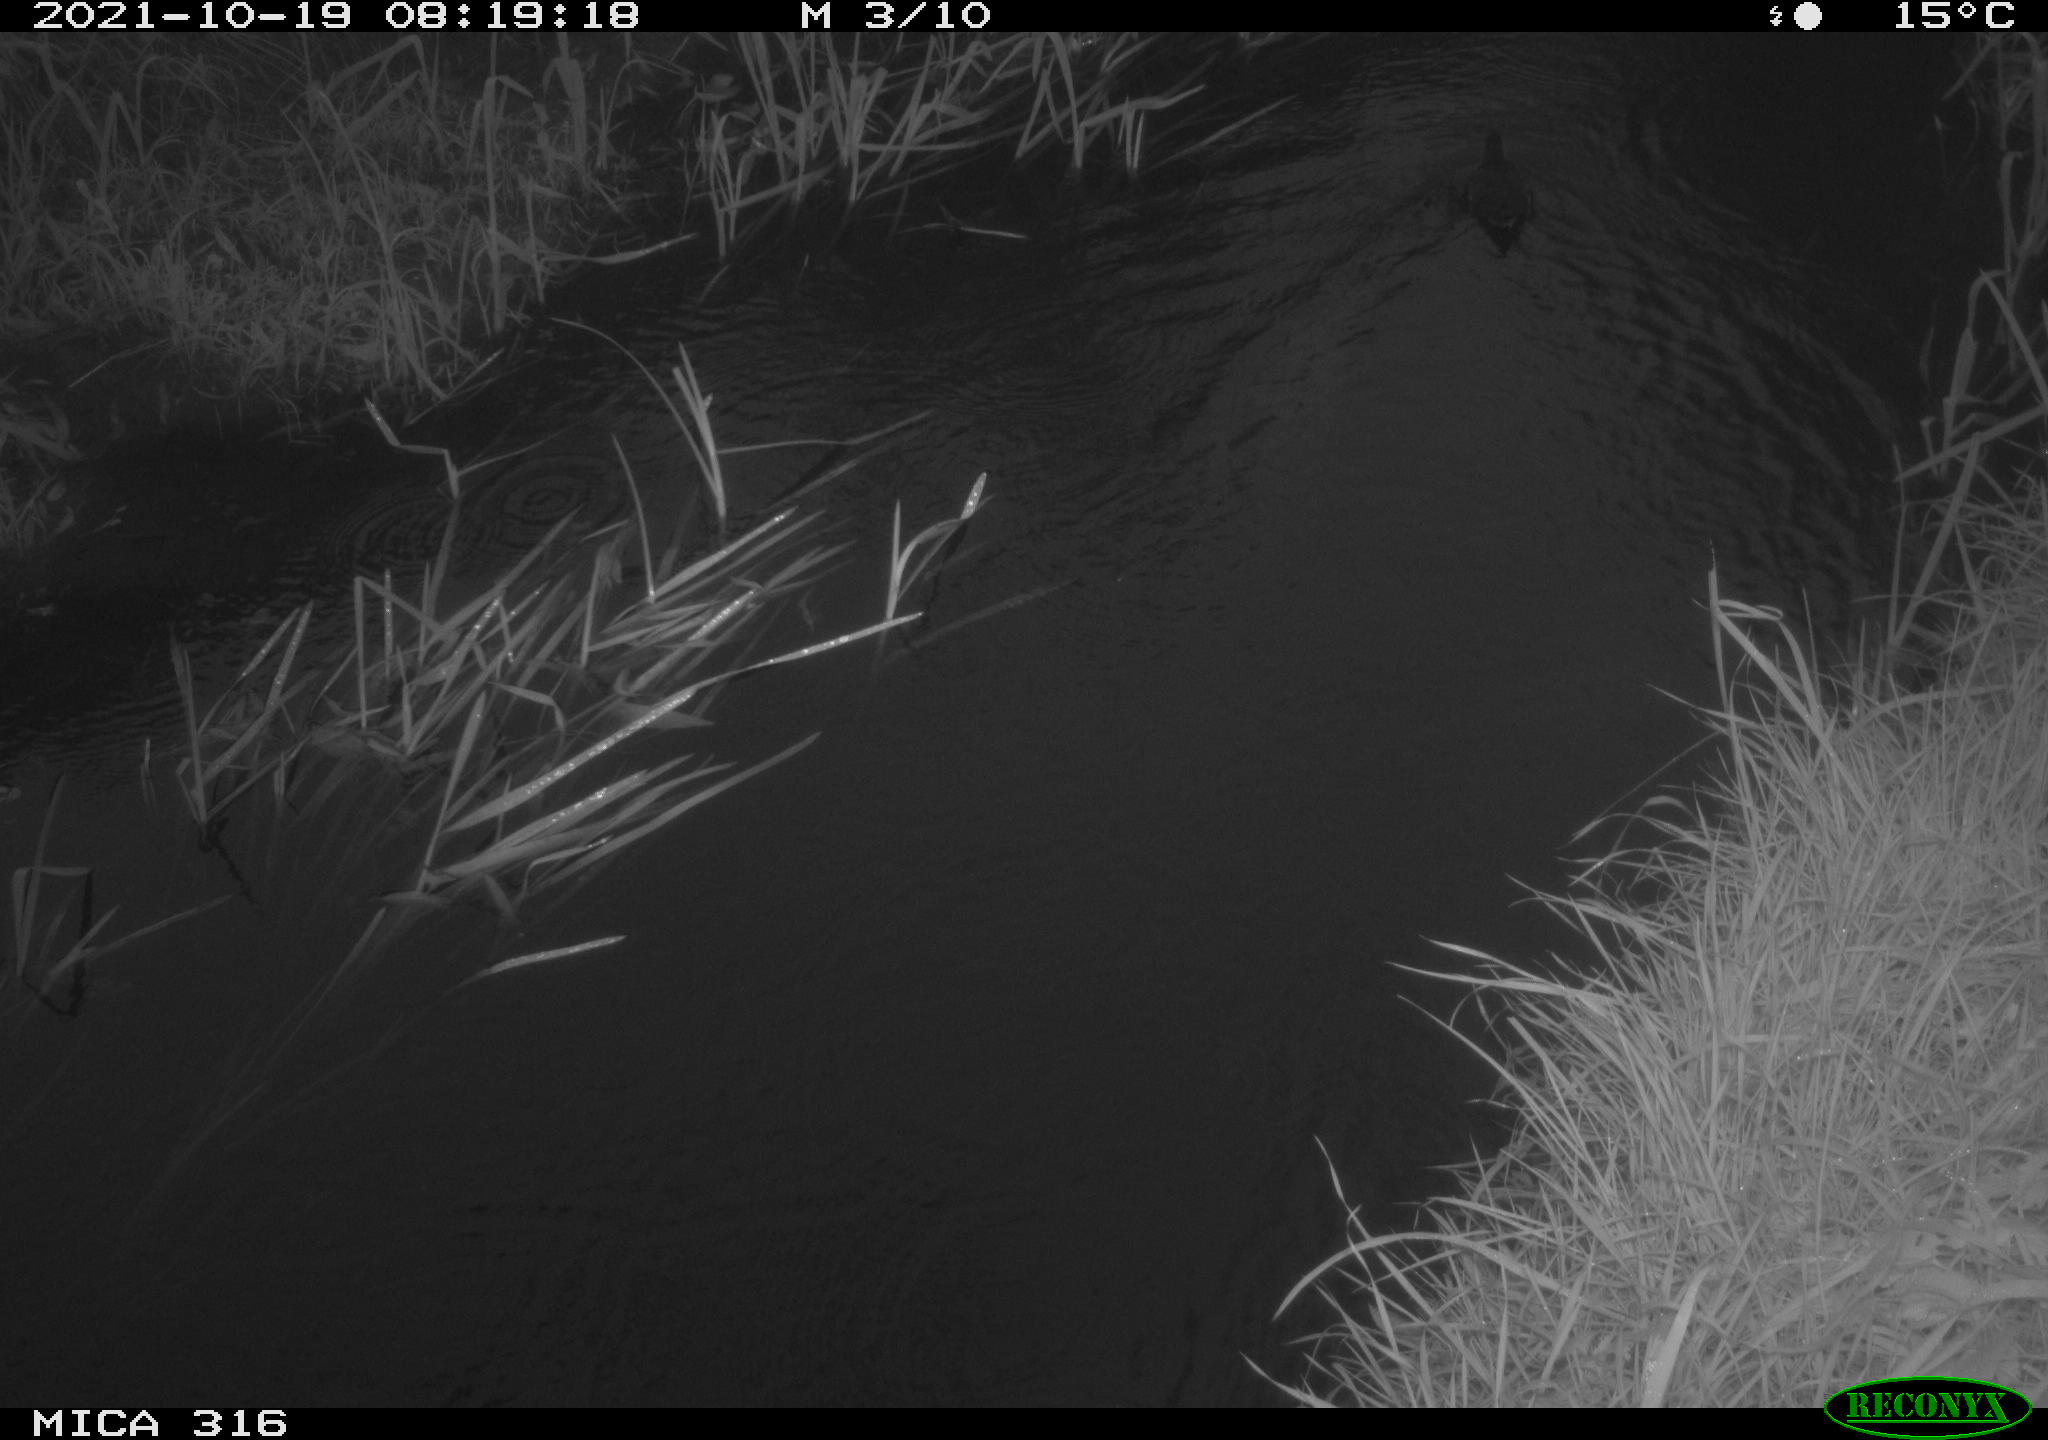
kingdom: Animalia
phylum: Chordata
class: Aves
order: Gruiformes
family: Rallidae
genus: Gallinula
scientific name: Gallinula chloropus
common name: Common moorhen
